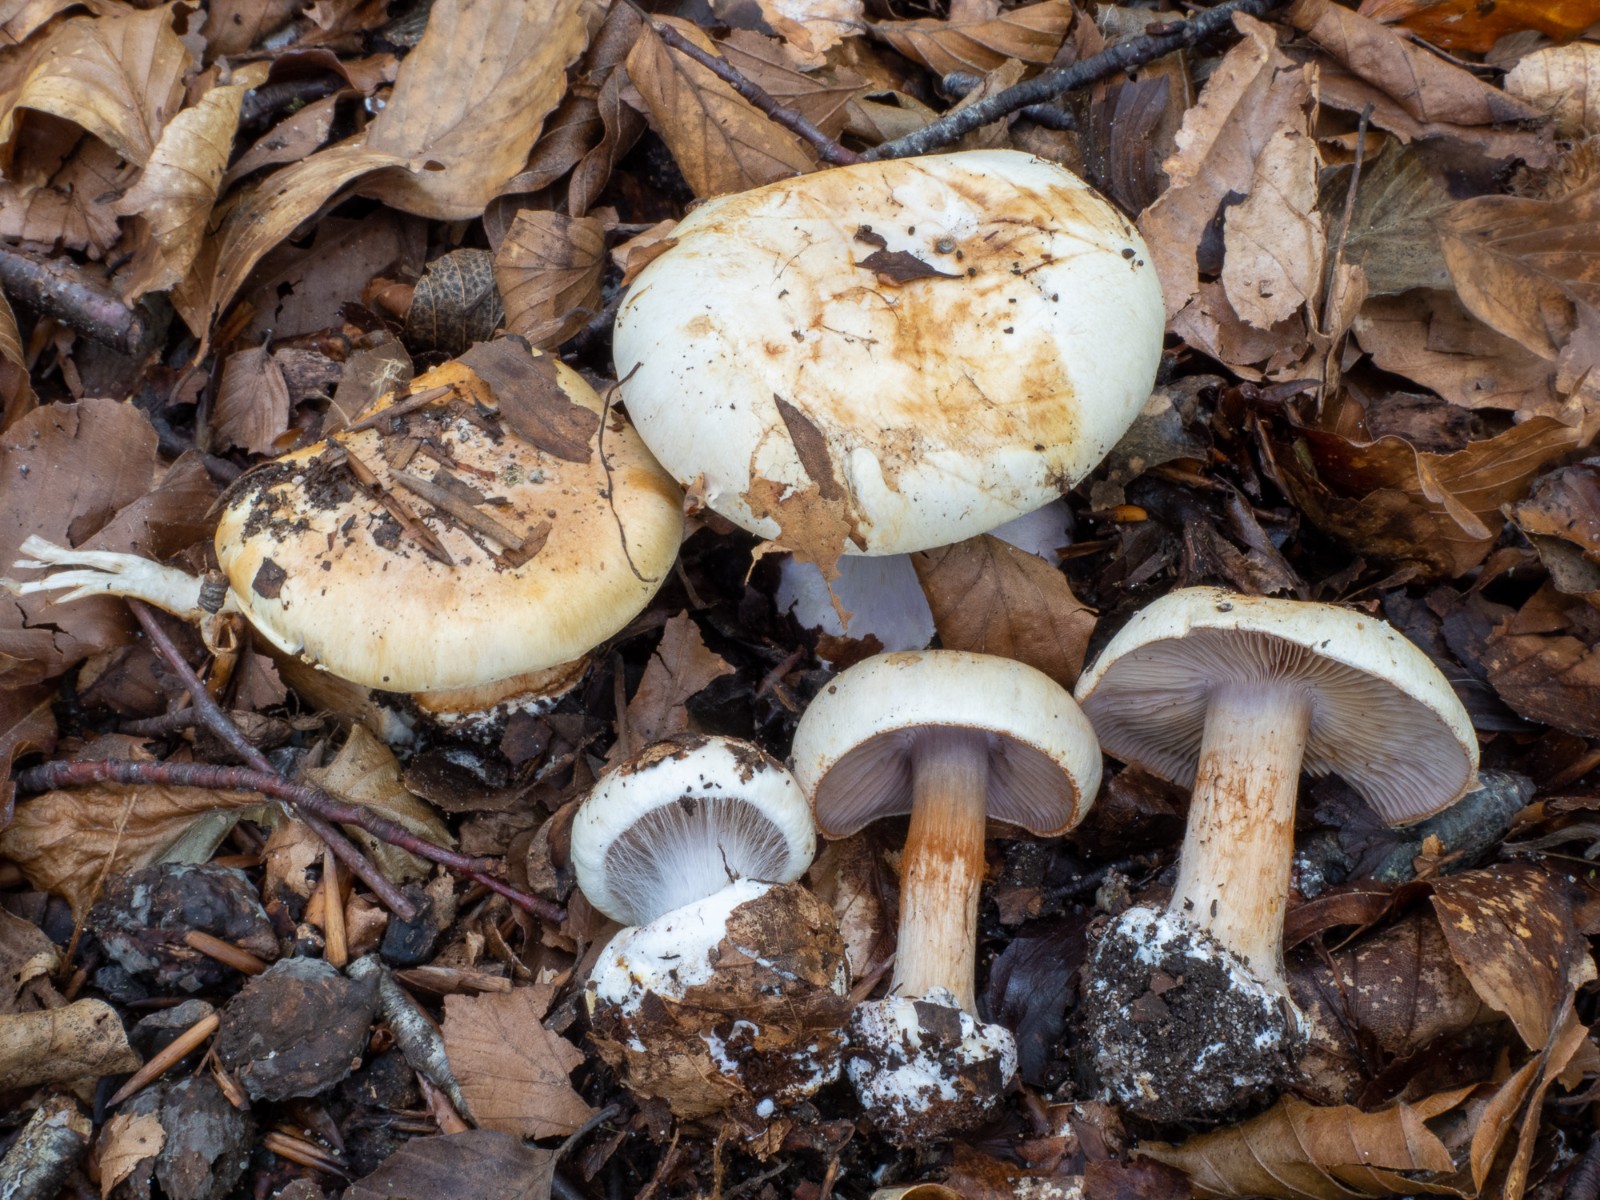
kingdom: Fungi
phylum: Basidiomycota
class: Agaricomycetes
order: Agaricales
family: Cortinariaceae
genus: Calonarius
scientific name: Calonarius lilacinovelatus
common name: violetknoldet slørhat
